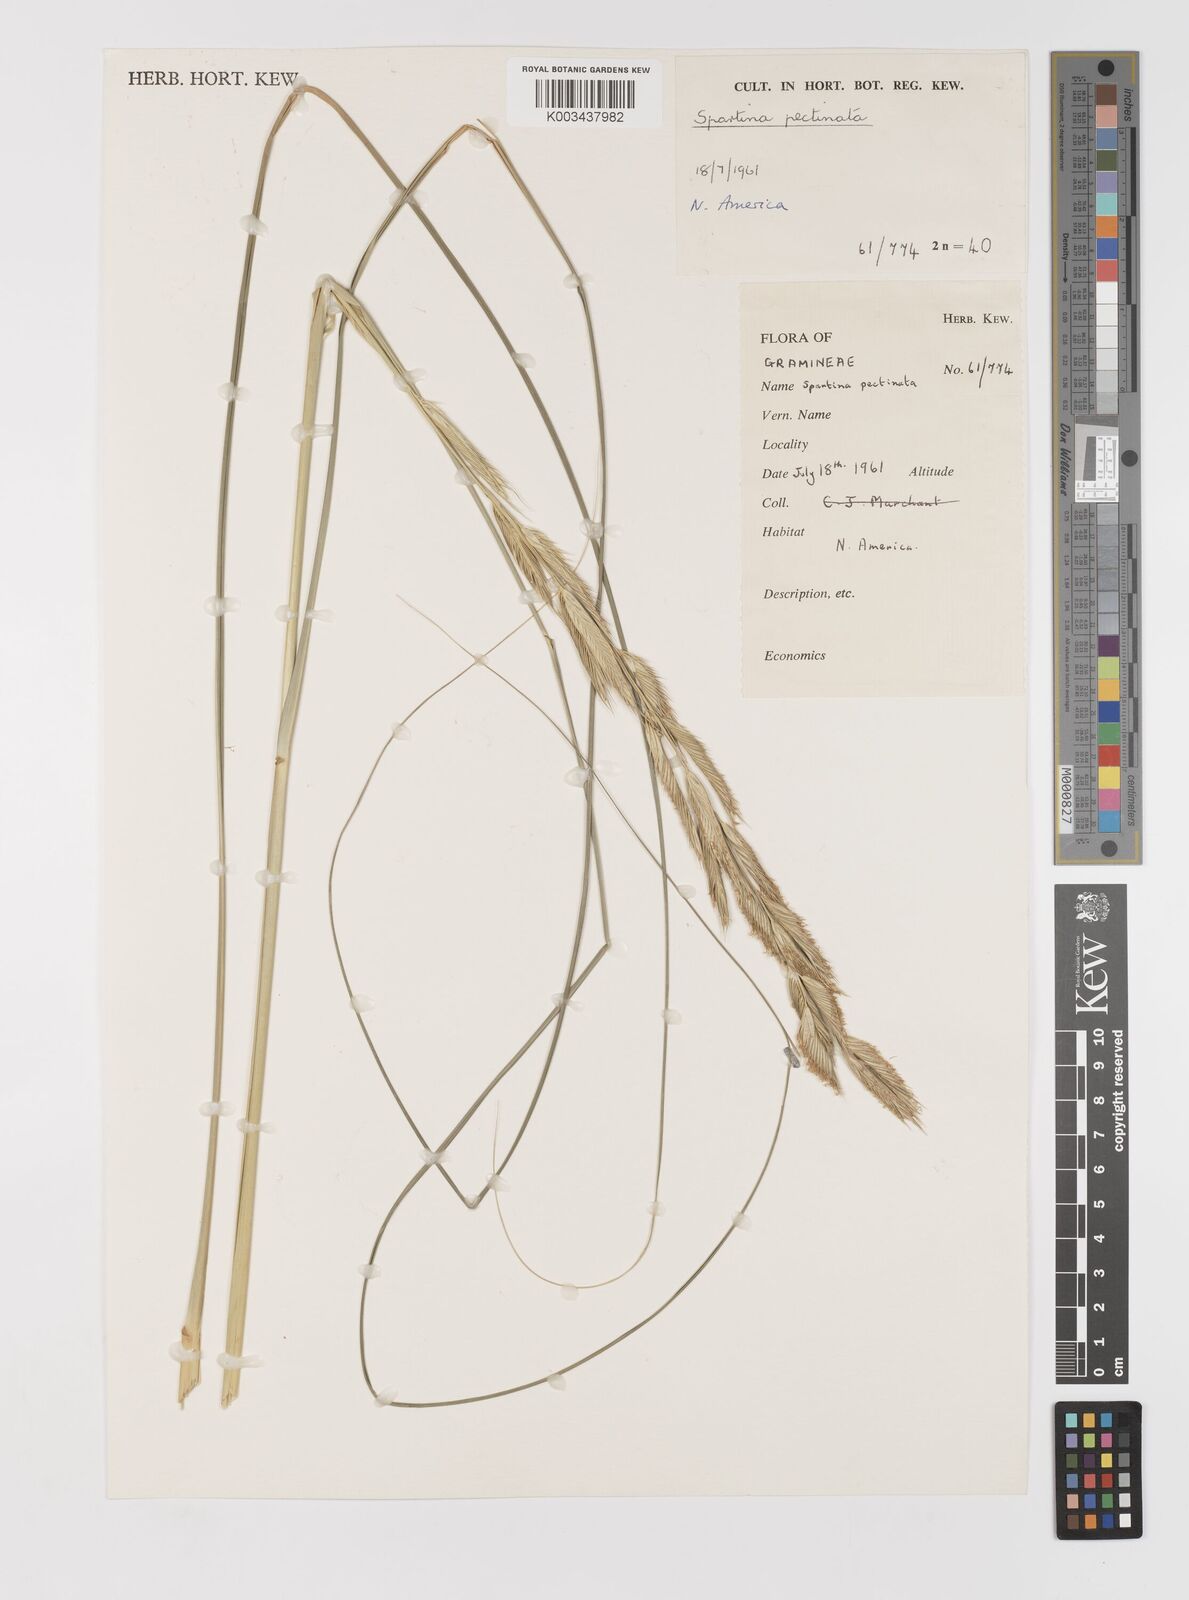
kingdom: Plantae
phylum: Tracheophyta
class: Liliopsida
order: Poales
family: Poaceae
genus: Sporobolus
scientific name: Sporobolus michauxianus
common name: Freshwater cordgrass
